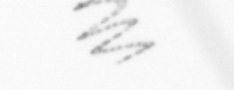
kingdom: Chromista
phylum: Ochrophyta
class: Bacillariophyceae
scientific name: Bacillariophyceae
